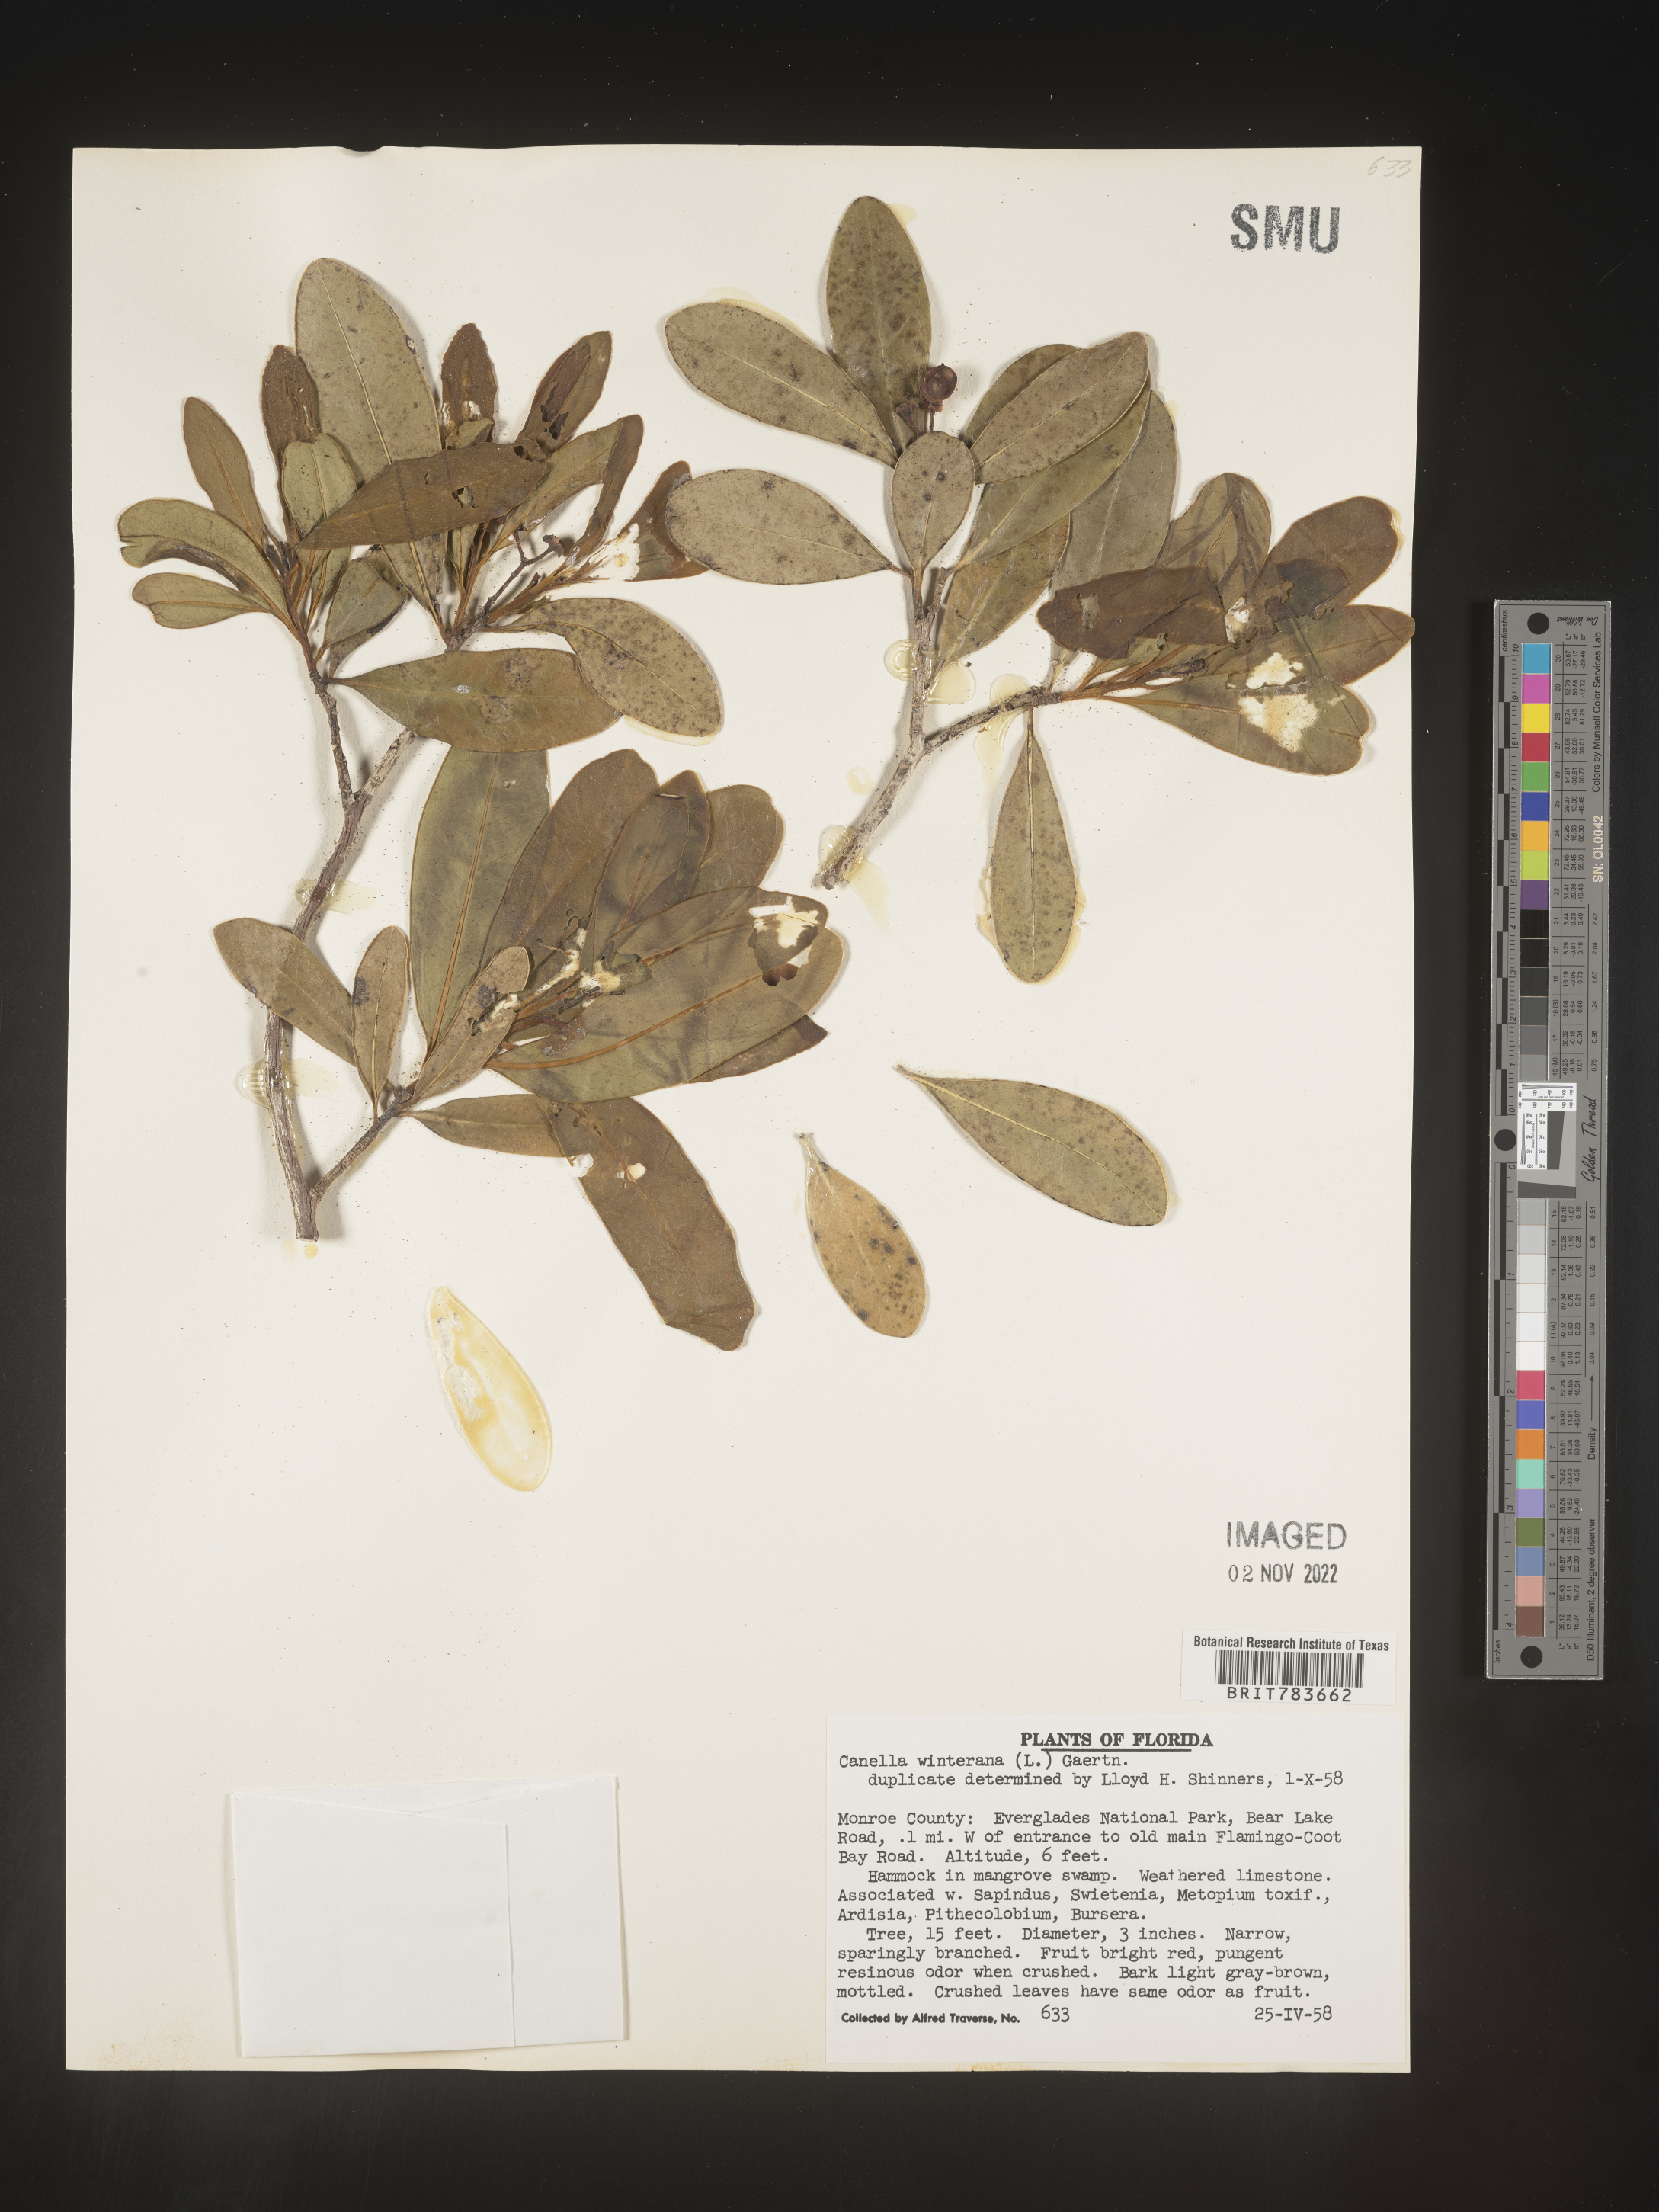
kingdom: Plantae
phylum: Tracheophyta
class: Magnoliopsida
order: Canellales
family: Canellaceae
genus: Canella
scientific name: Canella
